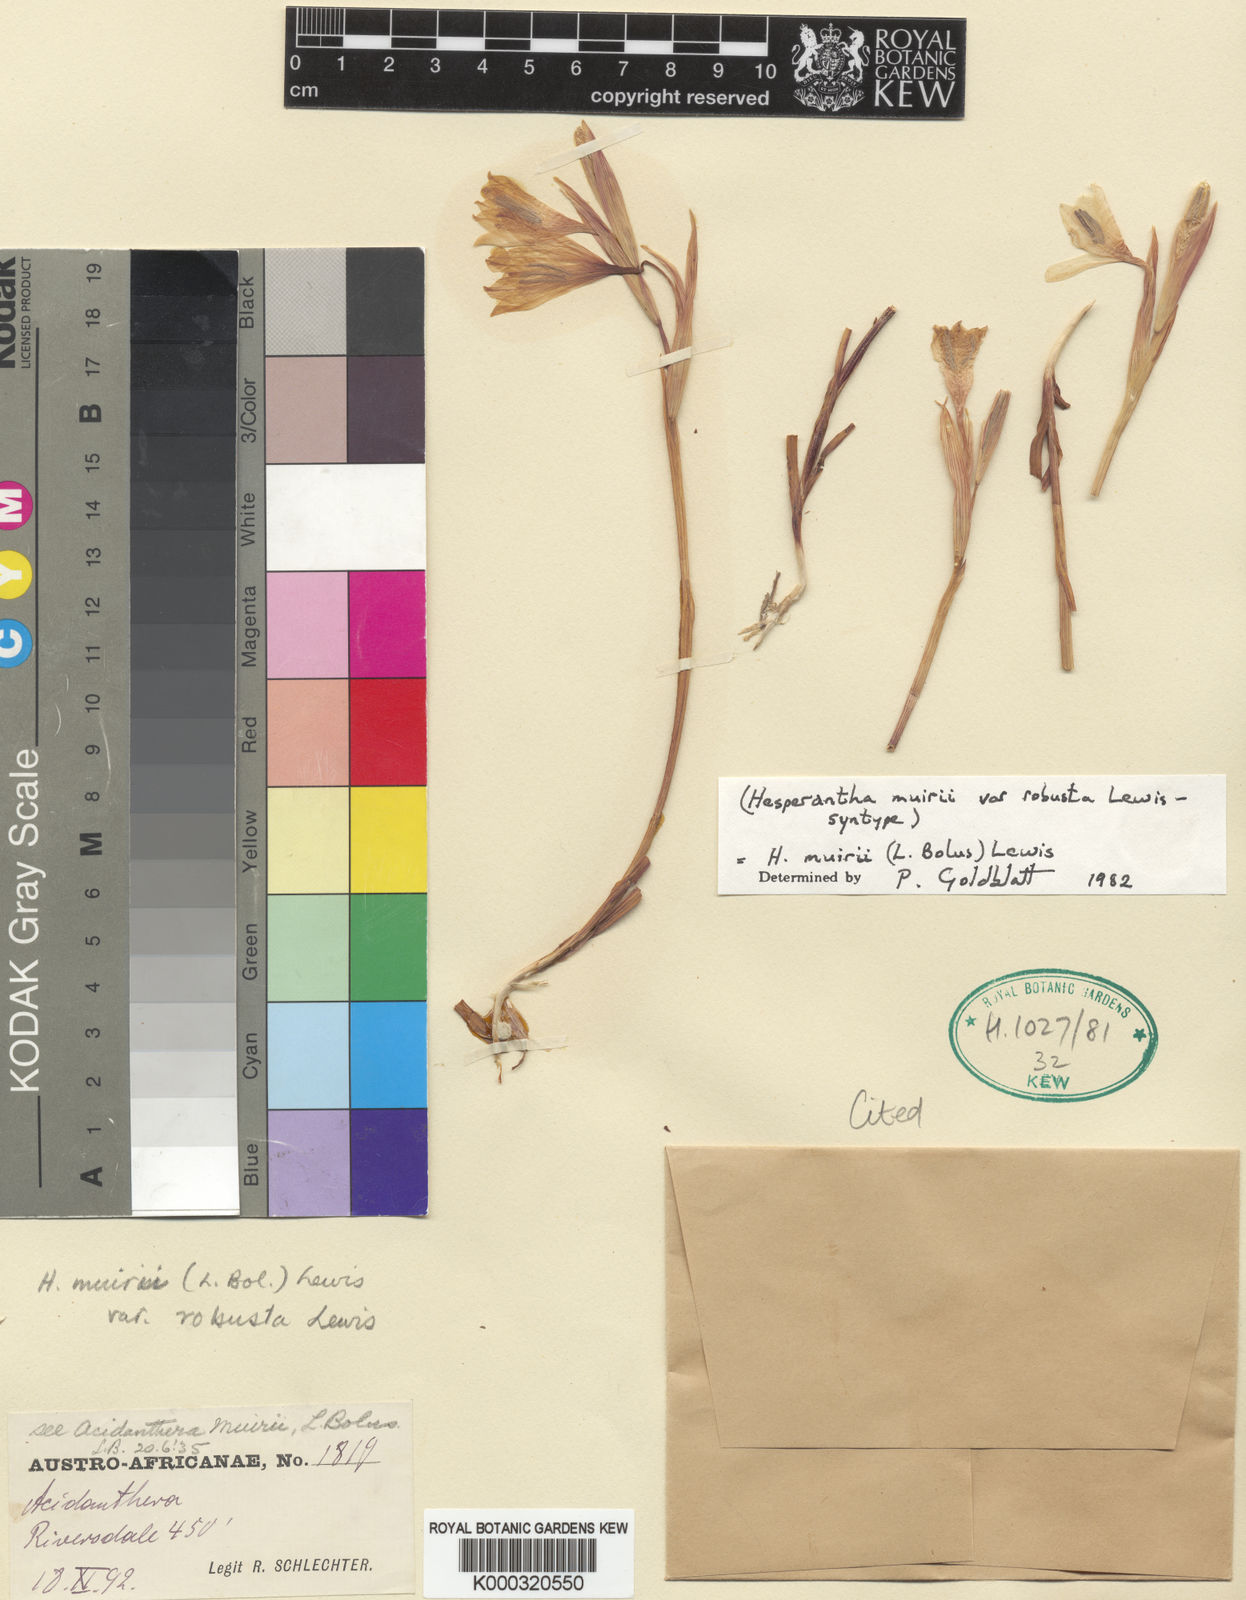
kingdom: Plantae
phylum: Tracheophyta
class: Liliopsida
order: Asparagales
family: Iridaceae
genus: Hesperantha
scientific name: Hesperantha muirii
